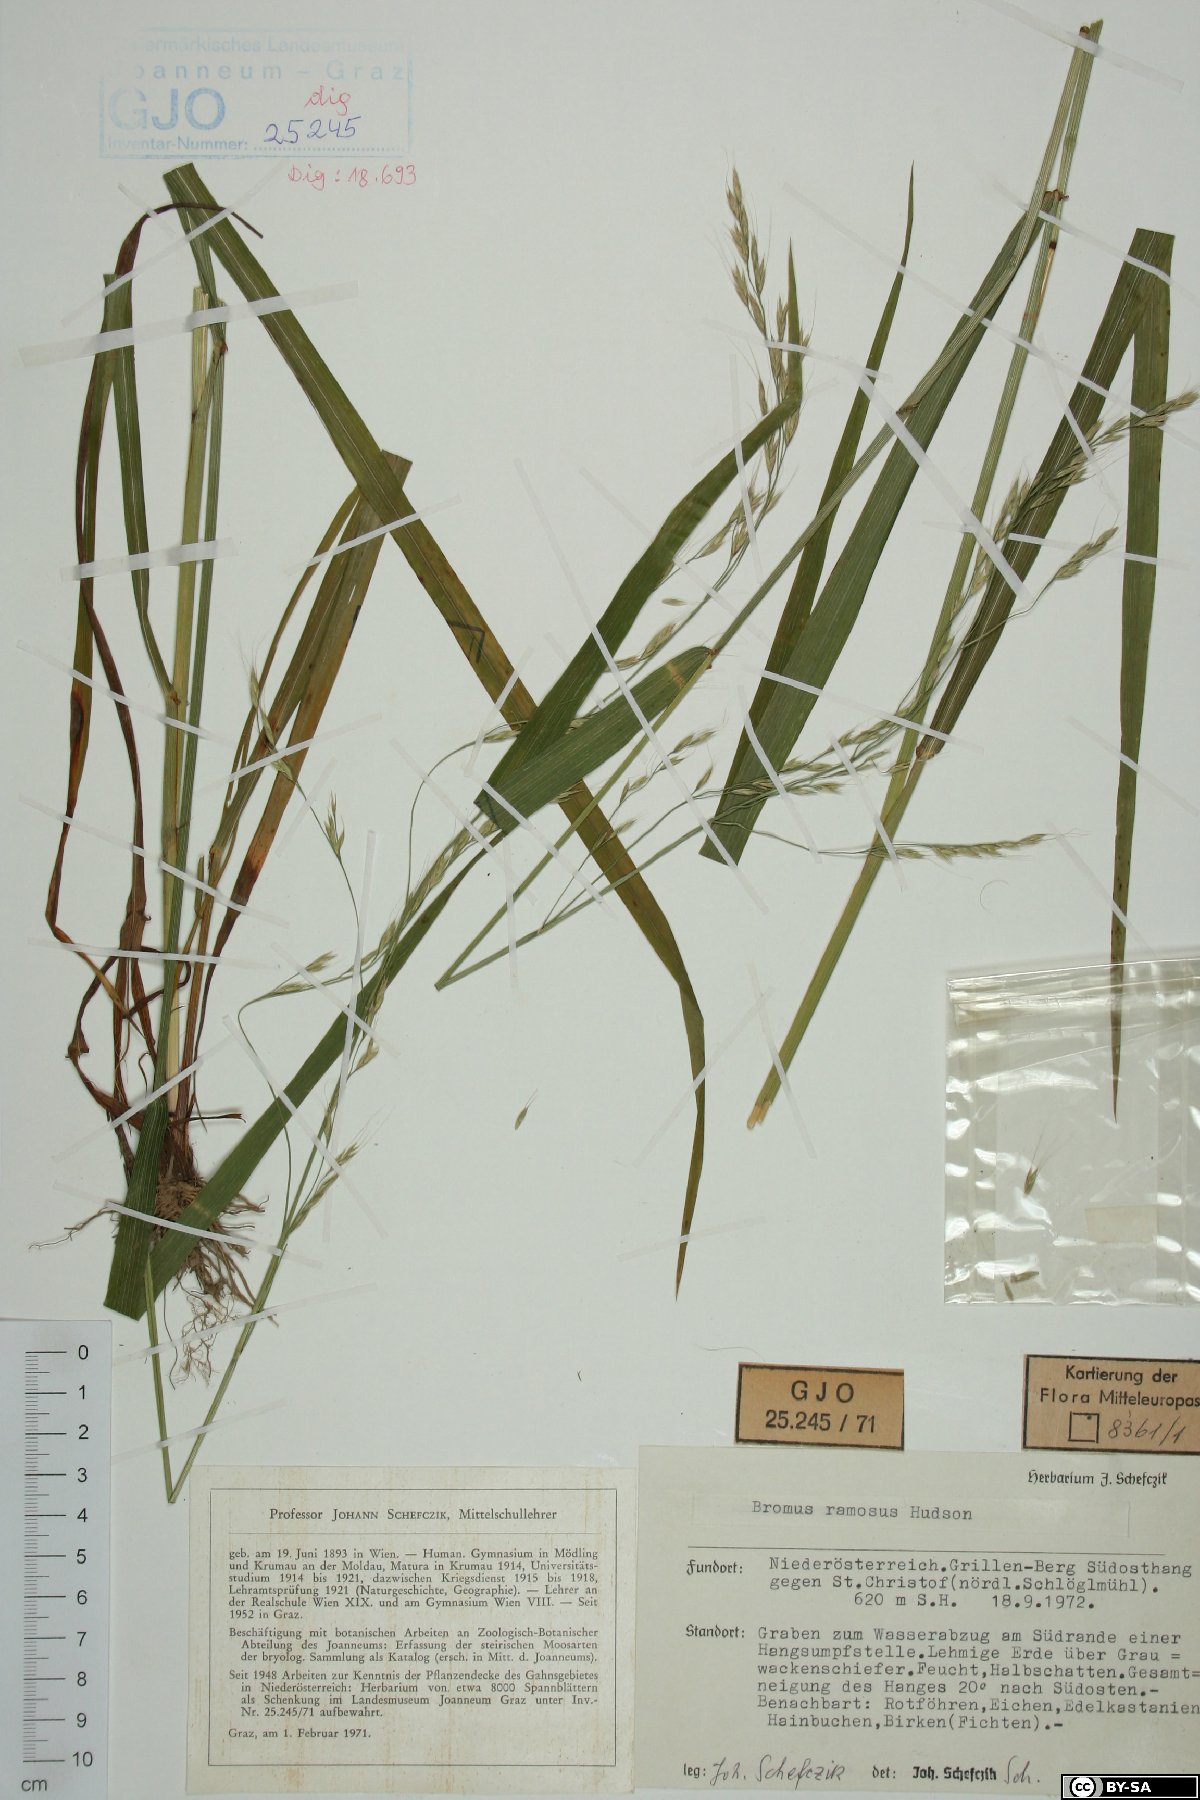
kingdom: Plantae
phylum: Tracheophyta
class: Liliopsida
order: Poales
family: Poaceae
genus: Bromus
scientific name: Bromus ramosus
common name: Hairy brome
